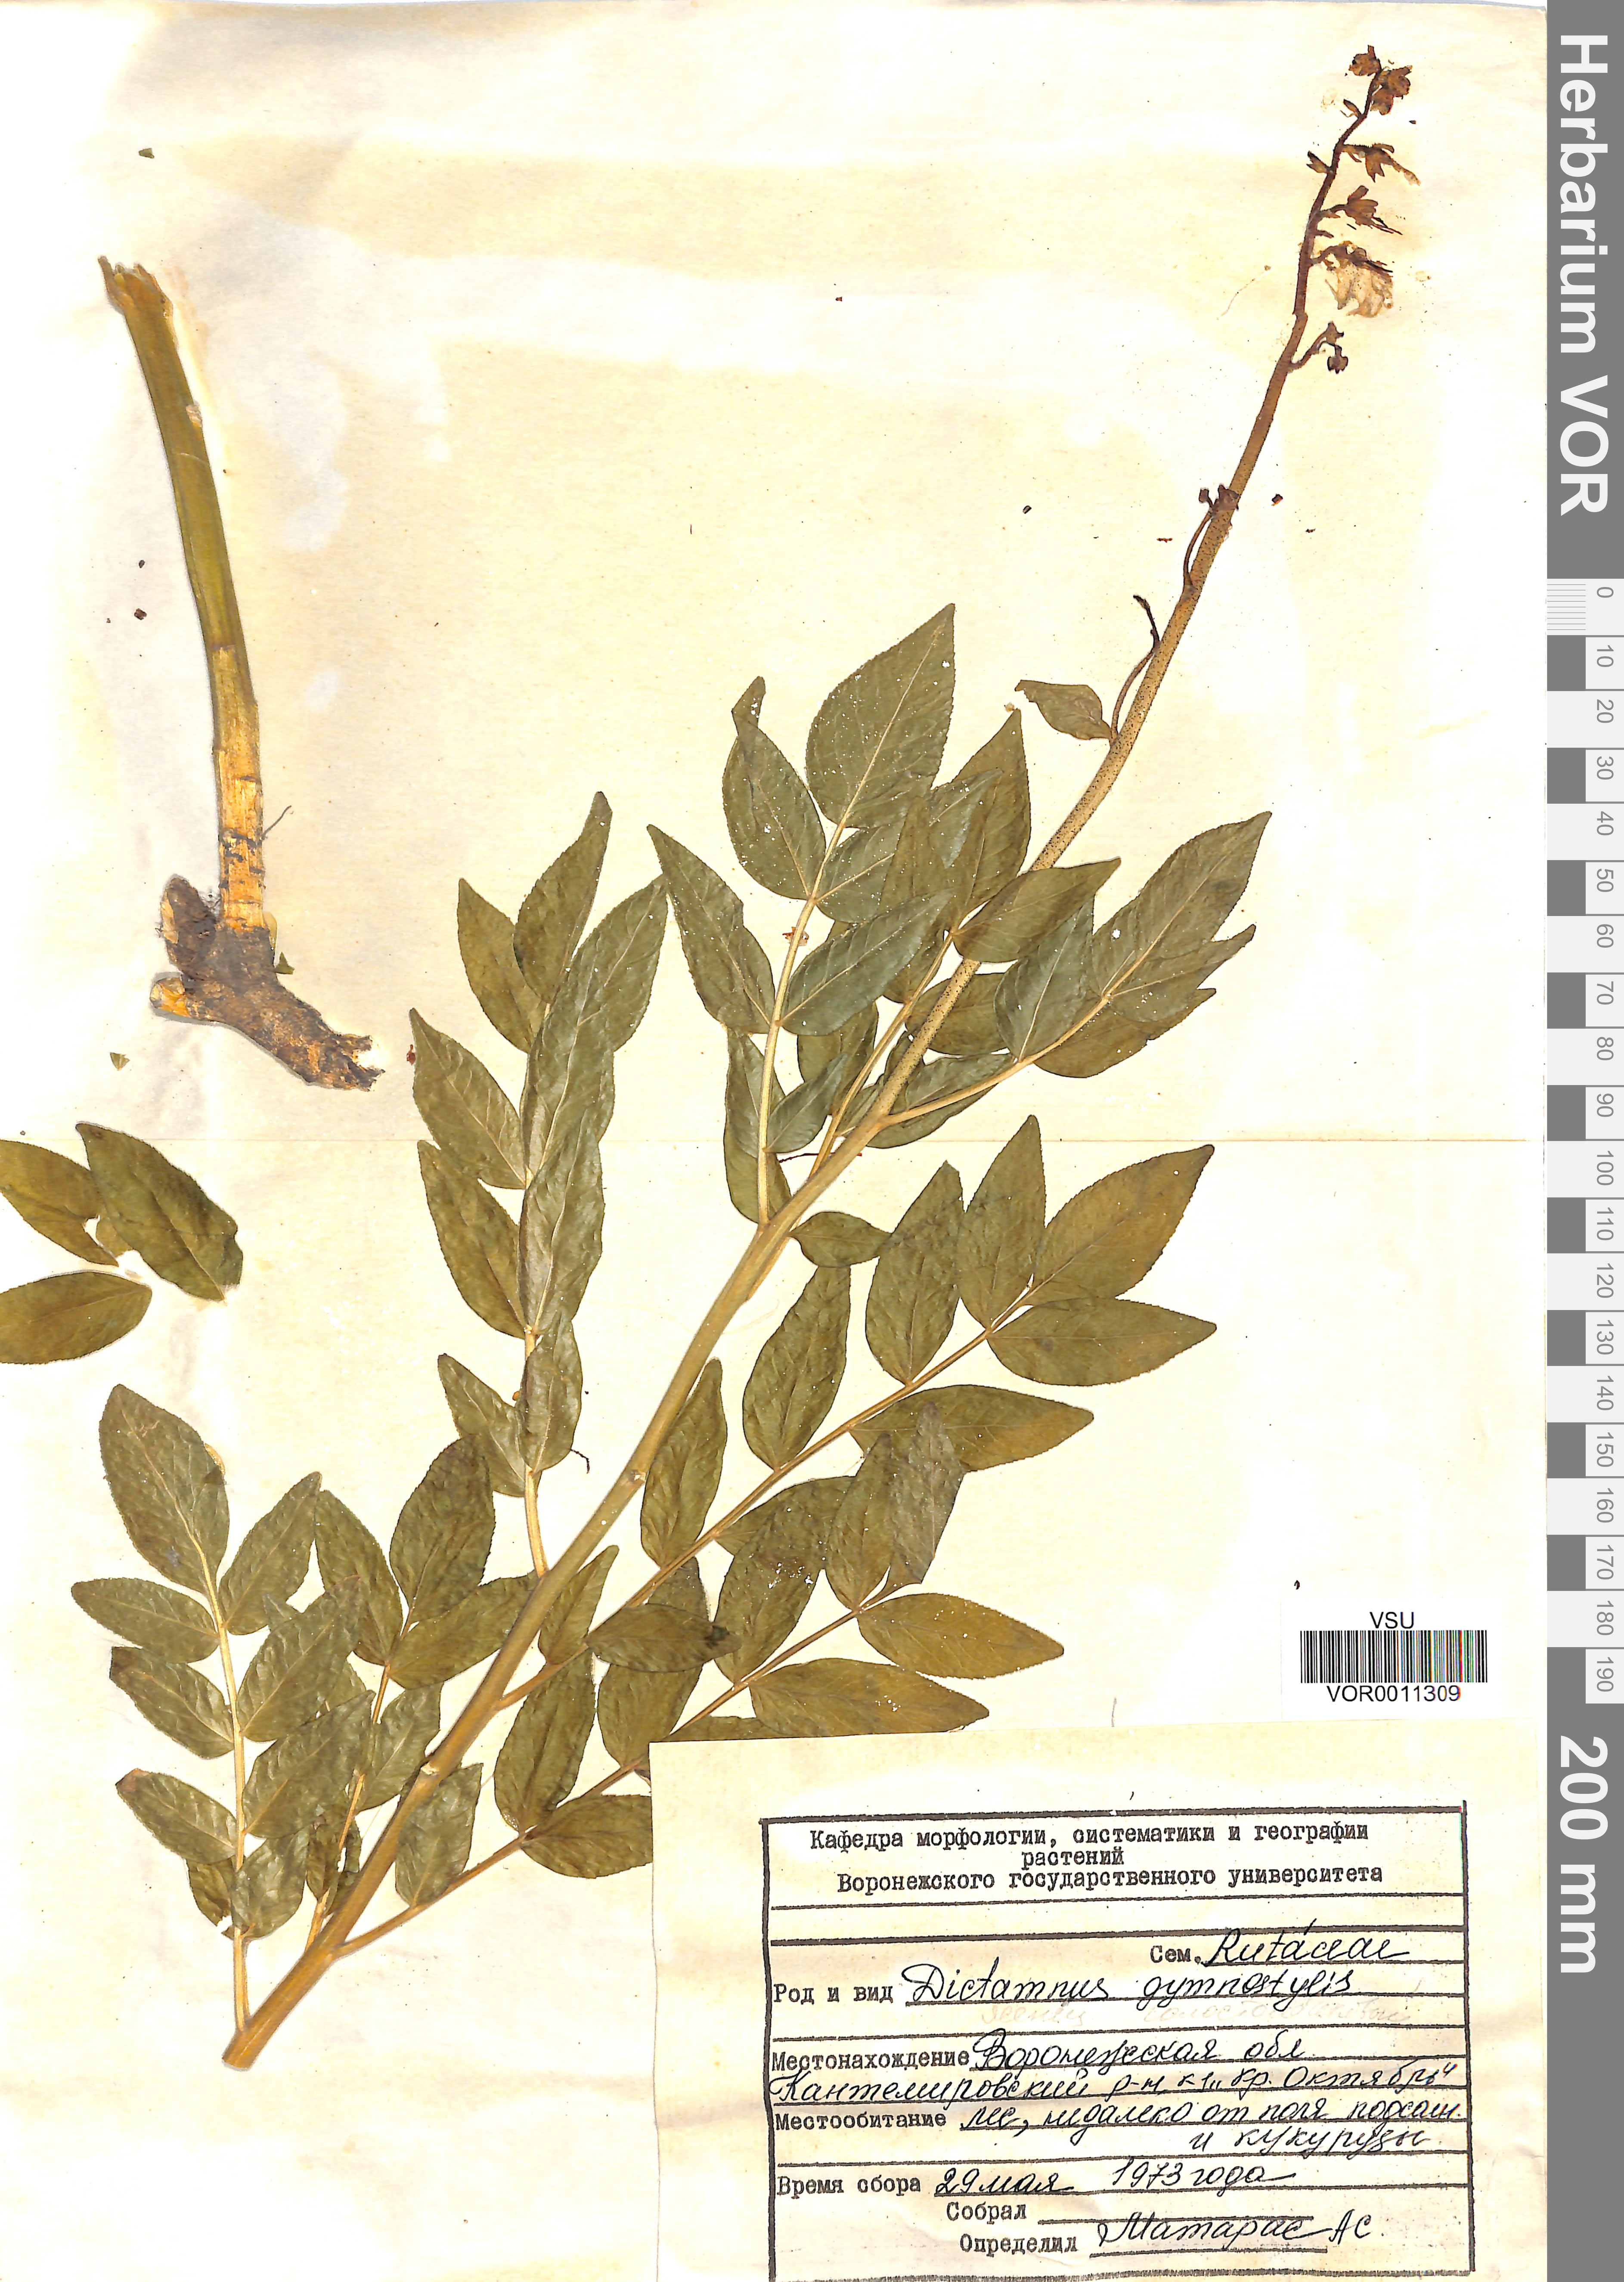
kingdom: Plantae
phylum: Tracheophyta
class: Magnoliopsida
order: Sapindales
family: Rutaceae
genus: Dictamnus
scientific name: Dictamnus albus
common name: Gasplant
